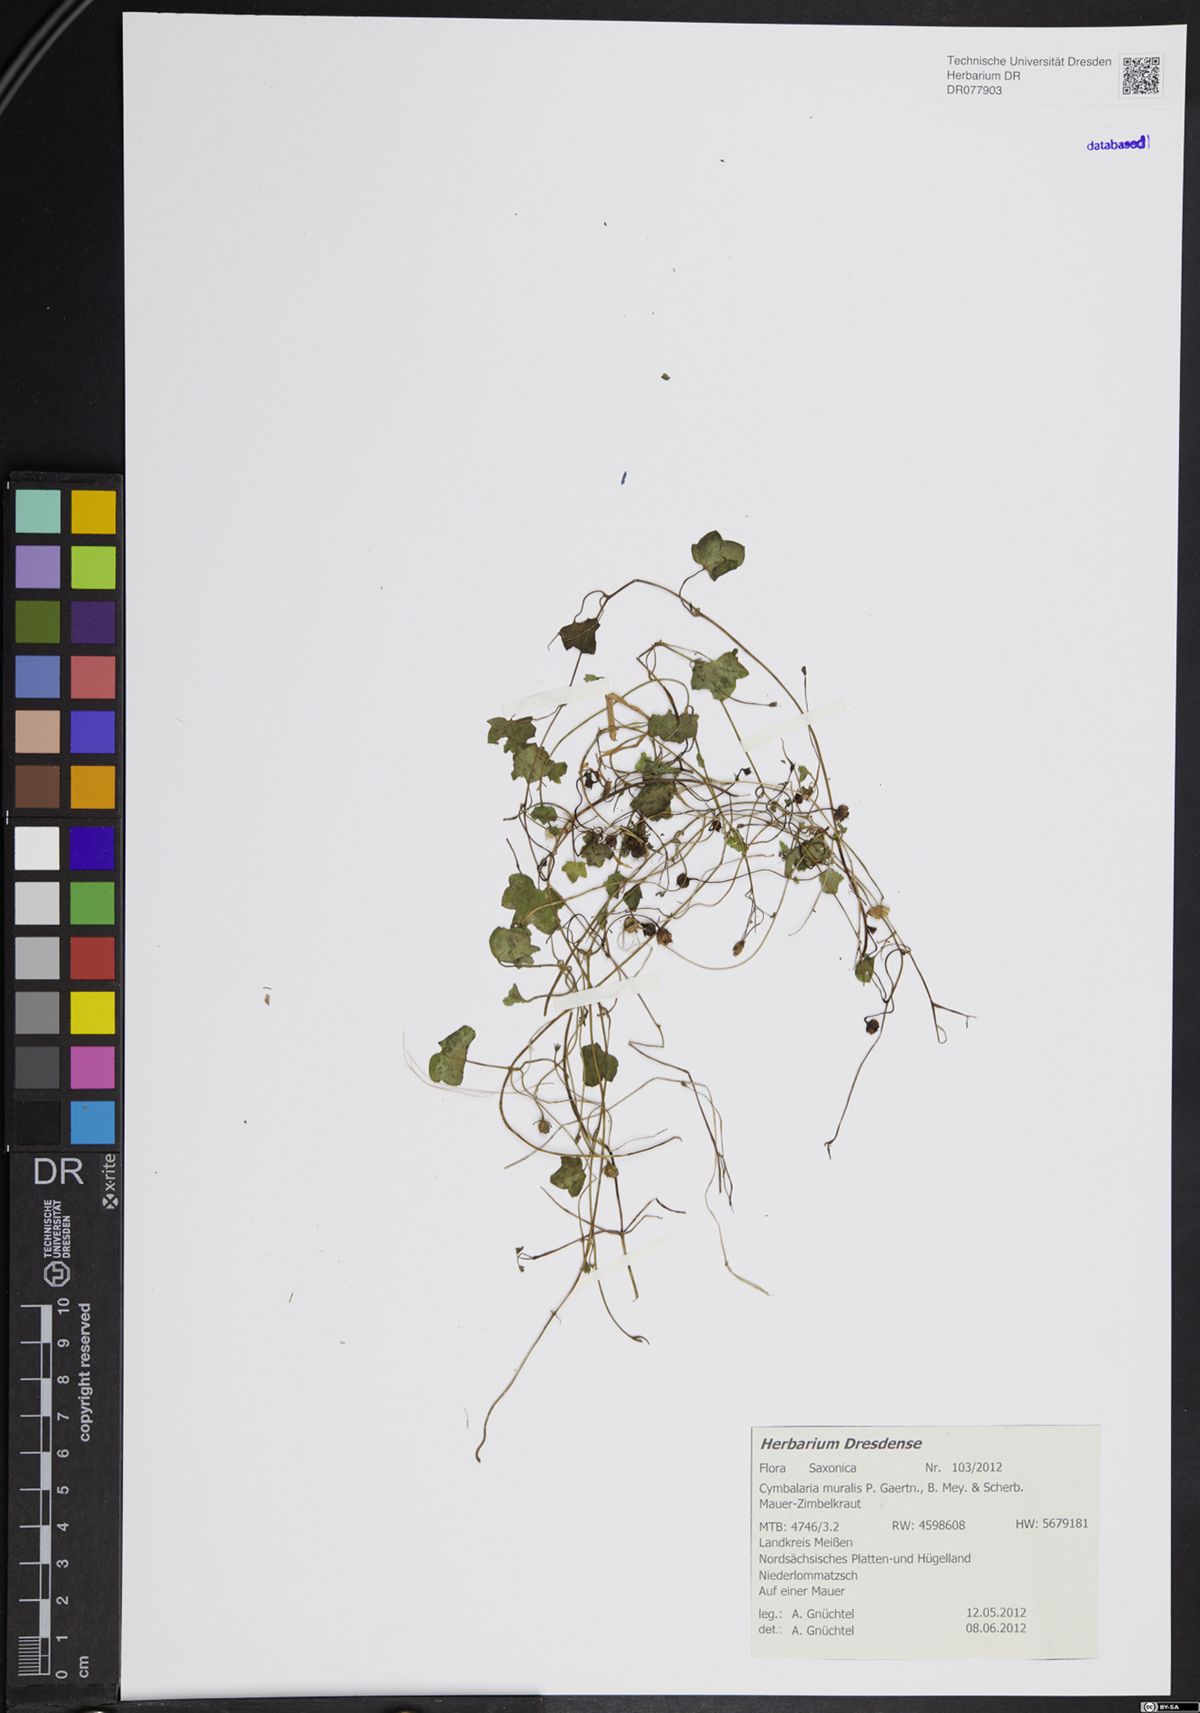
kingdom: Plantae
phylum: Tracheophyta
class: Magnoliopsida
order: Lamiales
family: Plantaginaceae
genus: Cymbalaria
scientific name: Cymbalaria muralis
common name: Ivy-leaved toadflax
